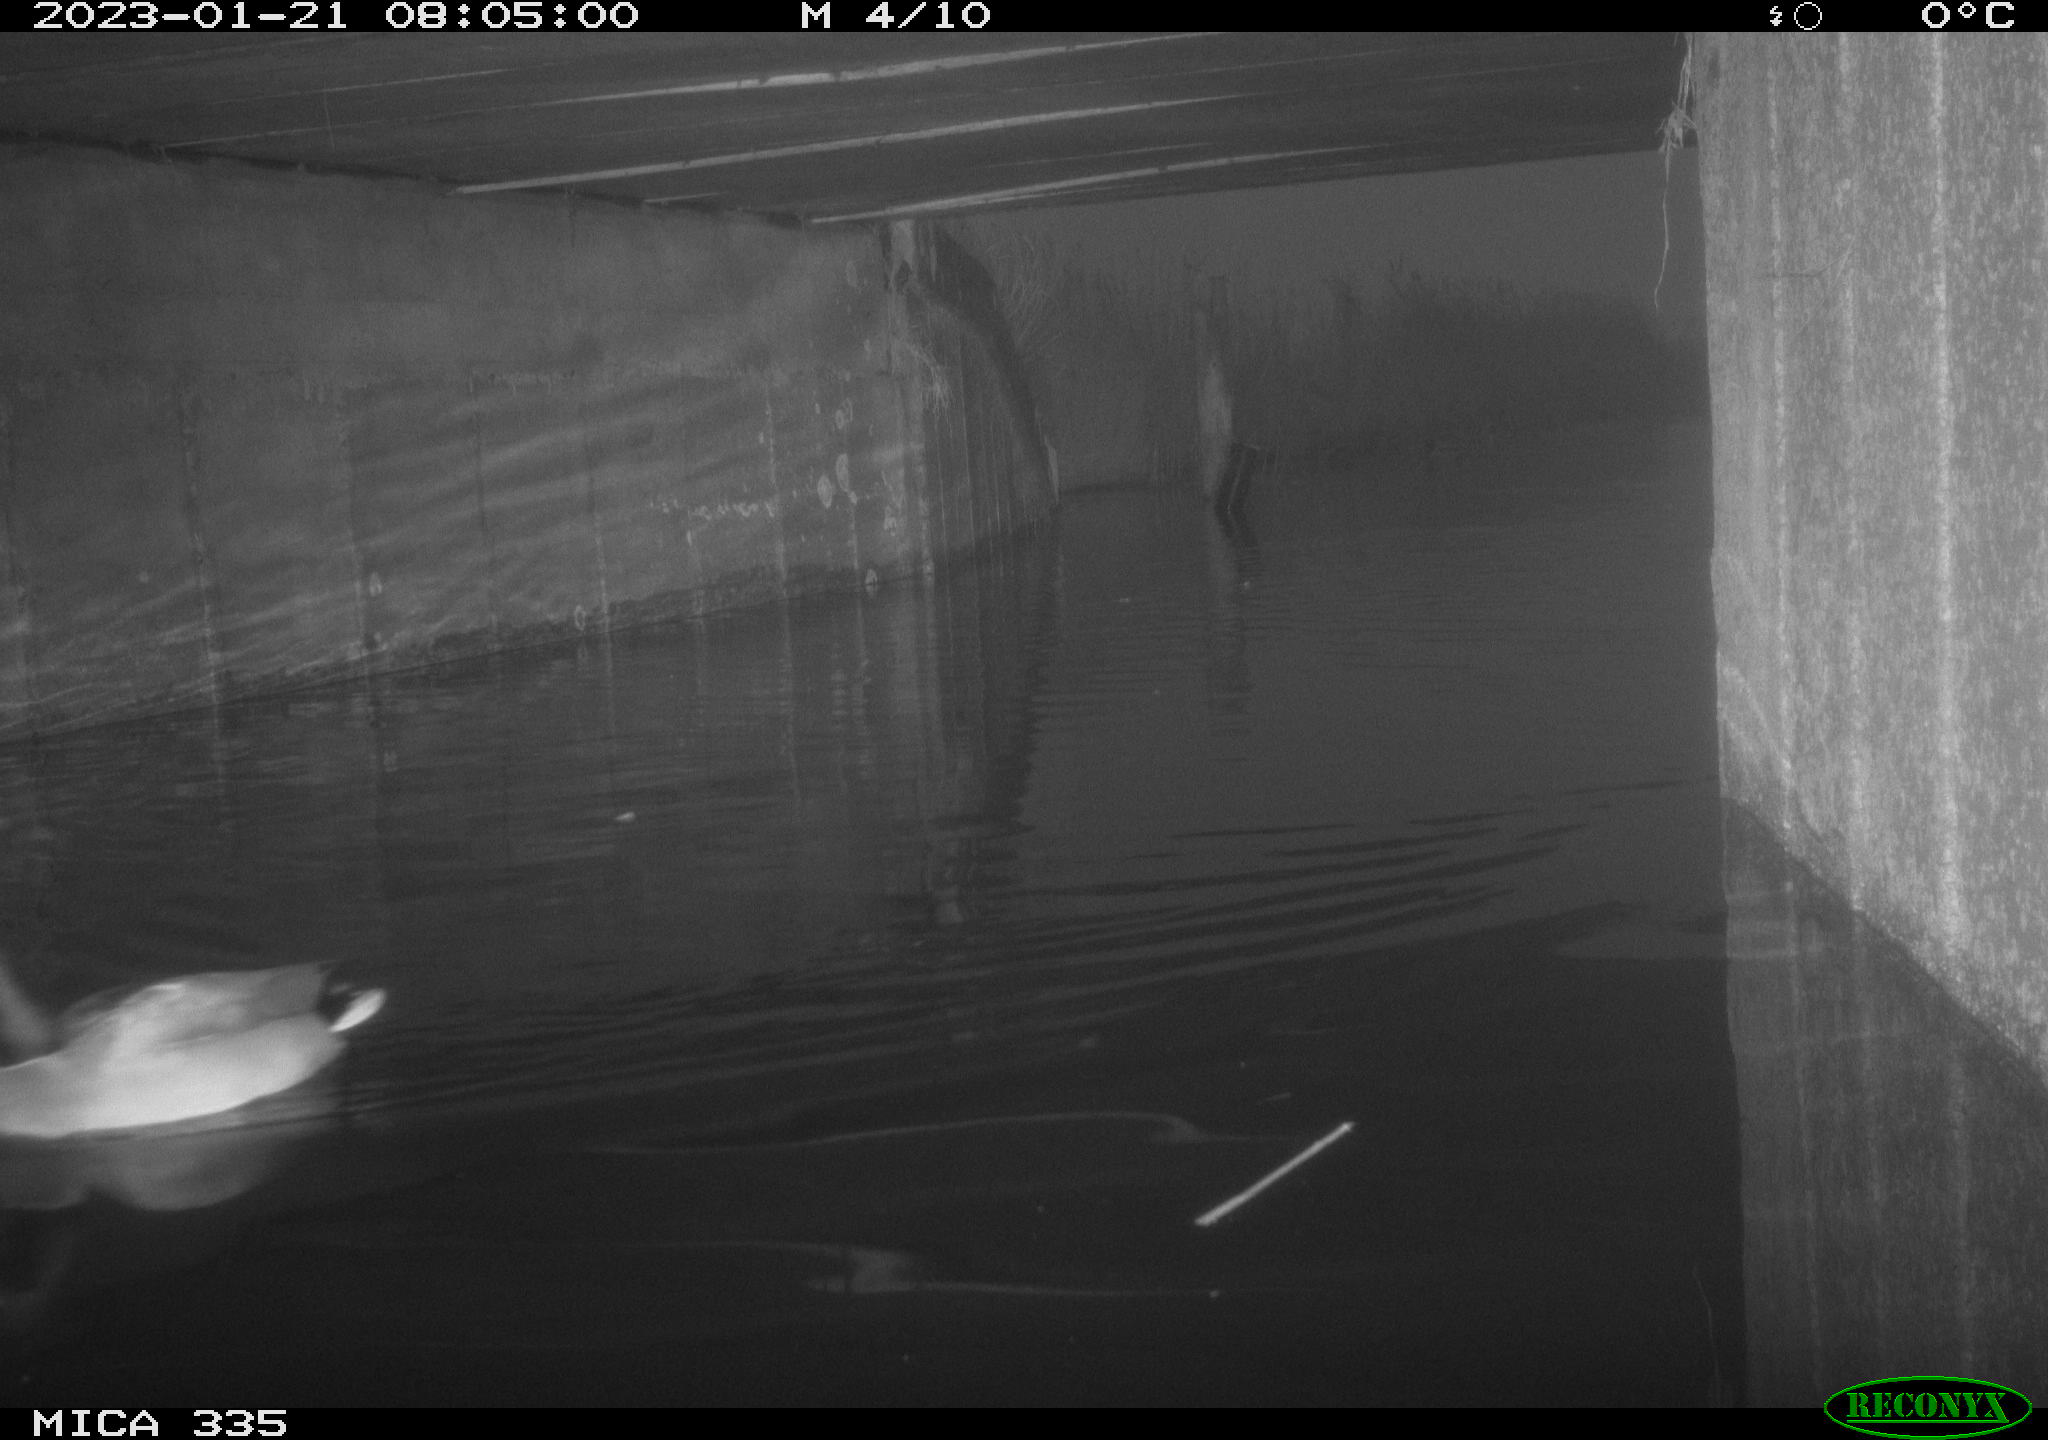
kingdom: Animalia
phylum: Chordata
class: Aves
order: Anseriformes
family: Anatidae
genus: Anas
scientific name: Anas
